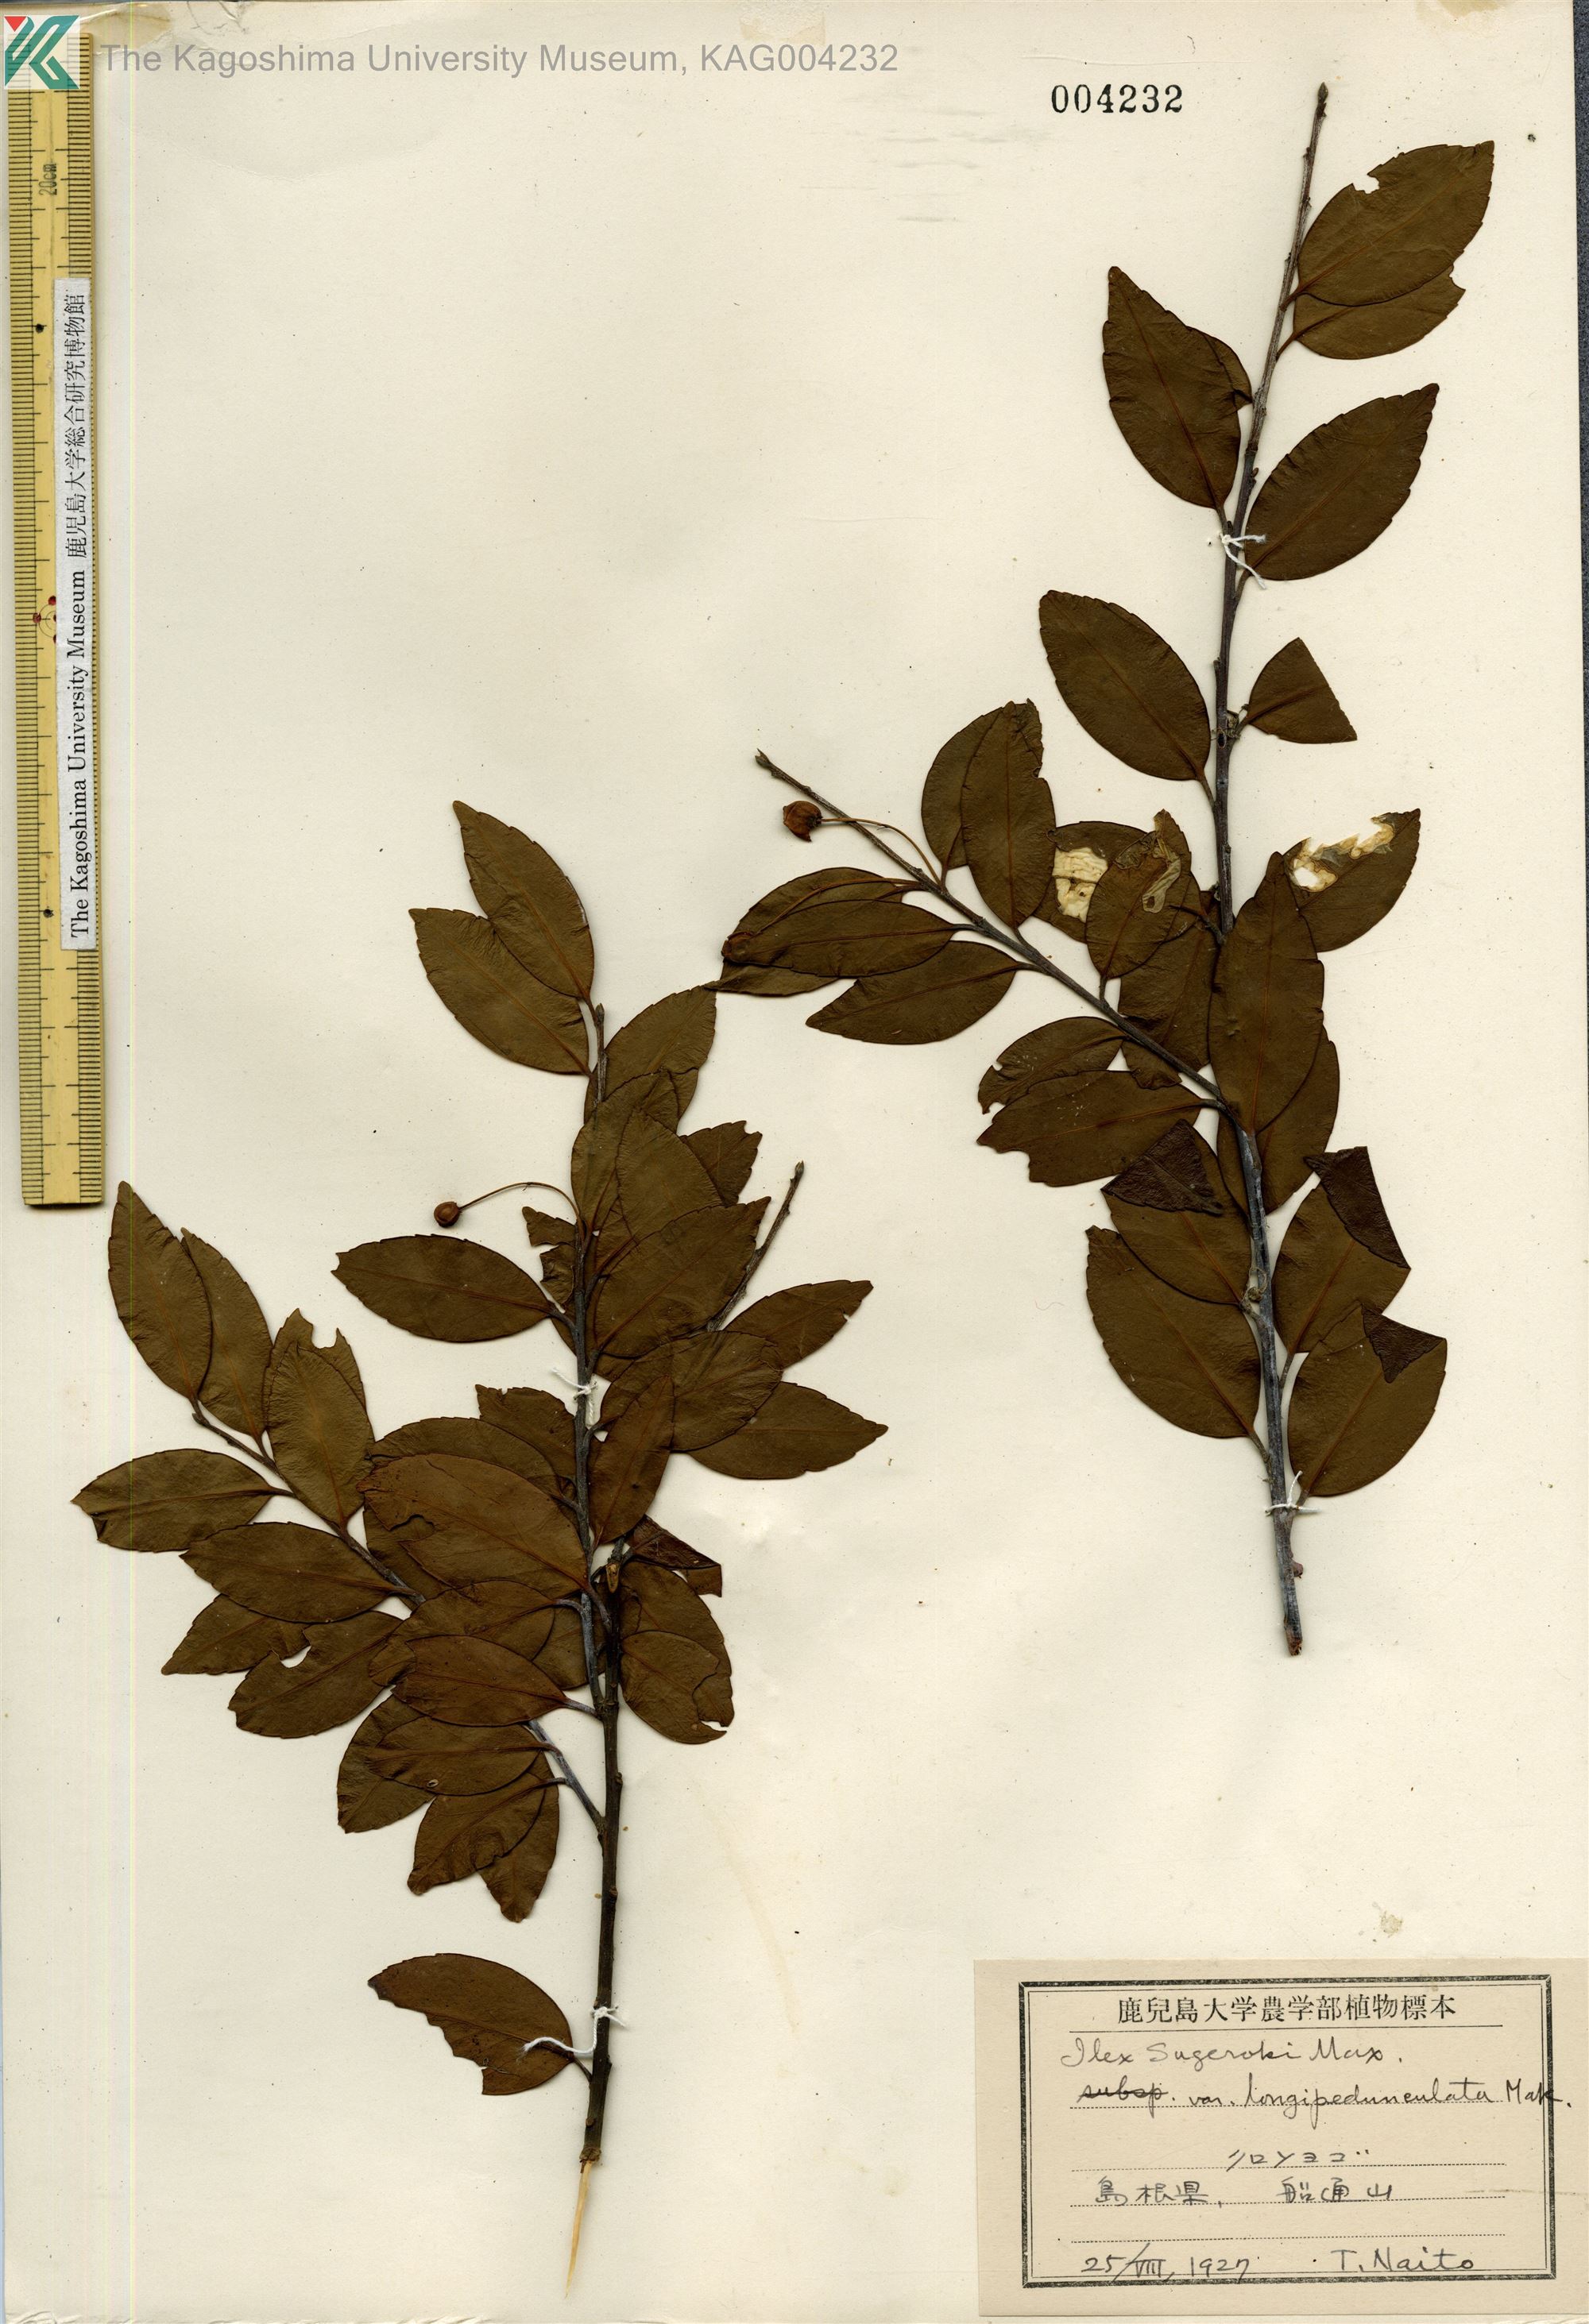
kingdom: Plantae
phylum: Tracheophyta
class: Magnoliopsida
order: Aquifoliales
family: Aquifoliaceae
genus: Ilex
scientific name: Ilex sugerokii
